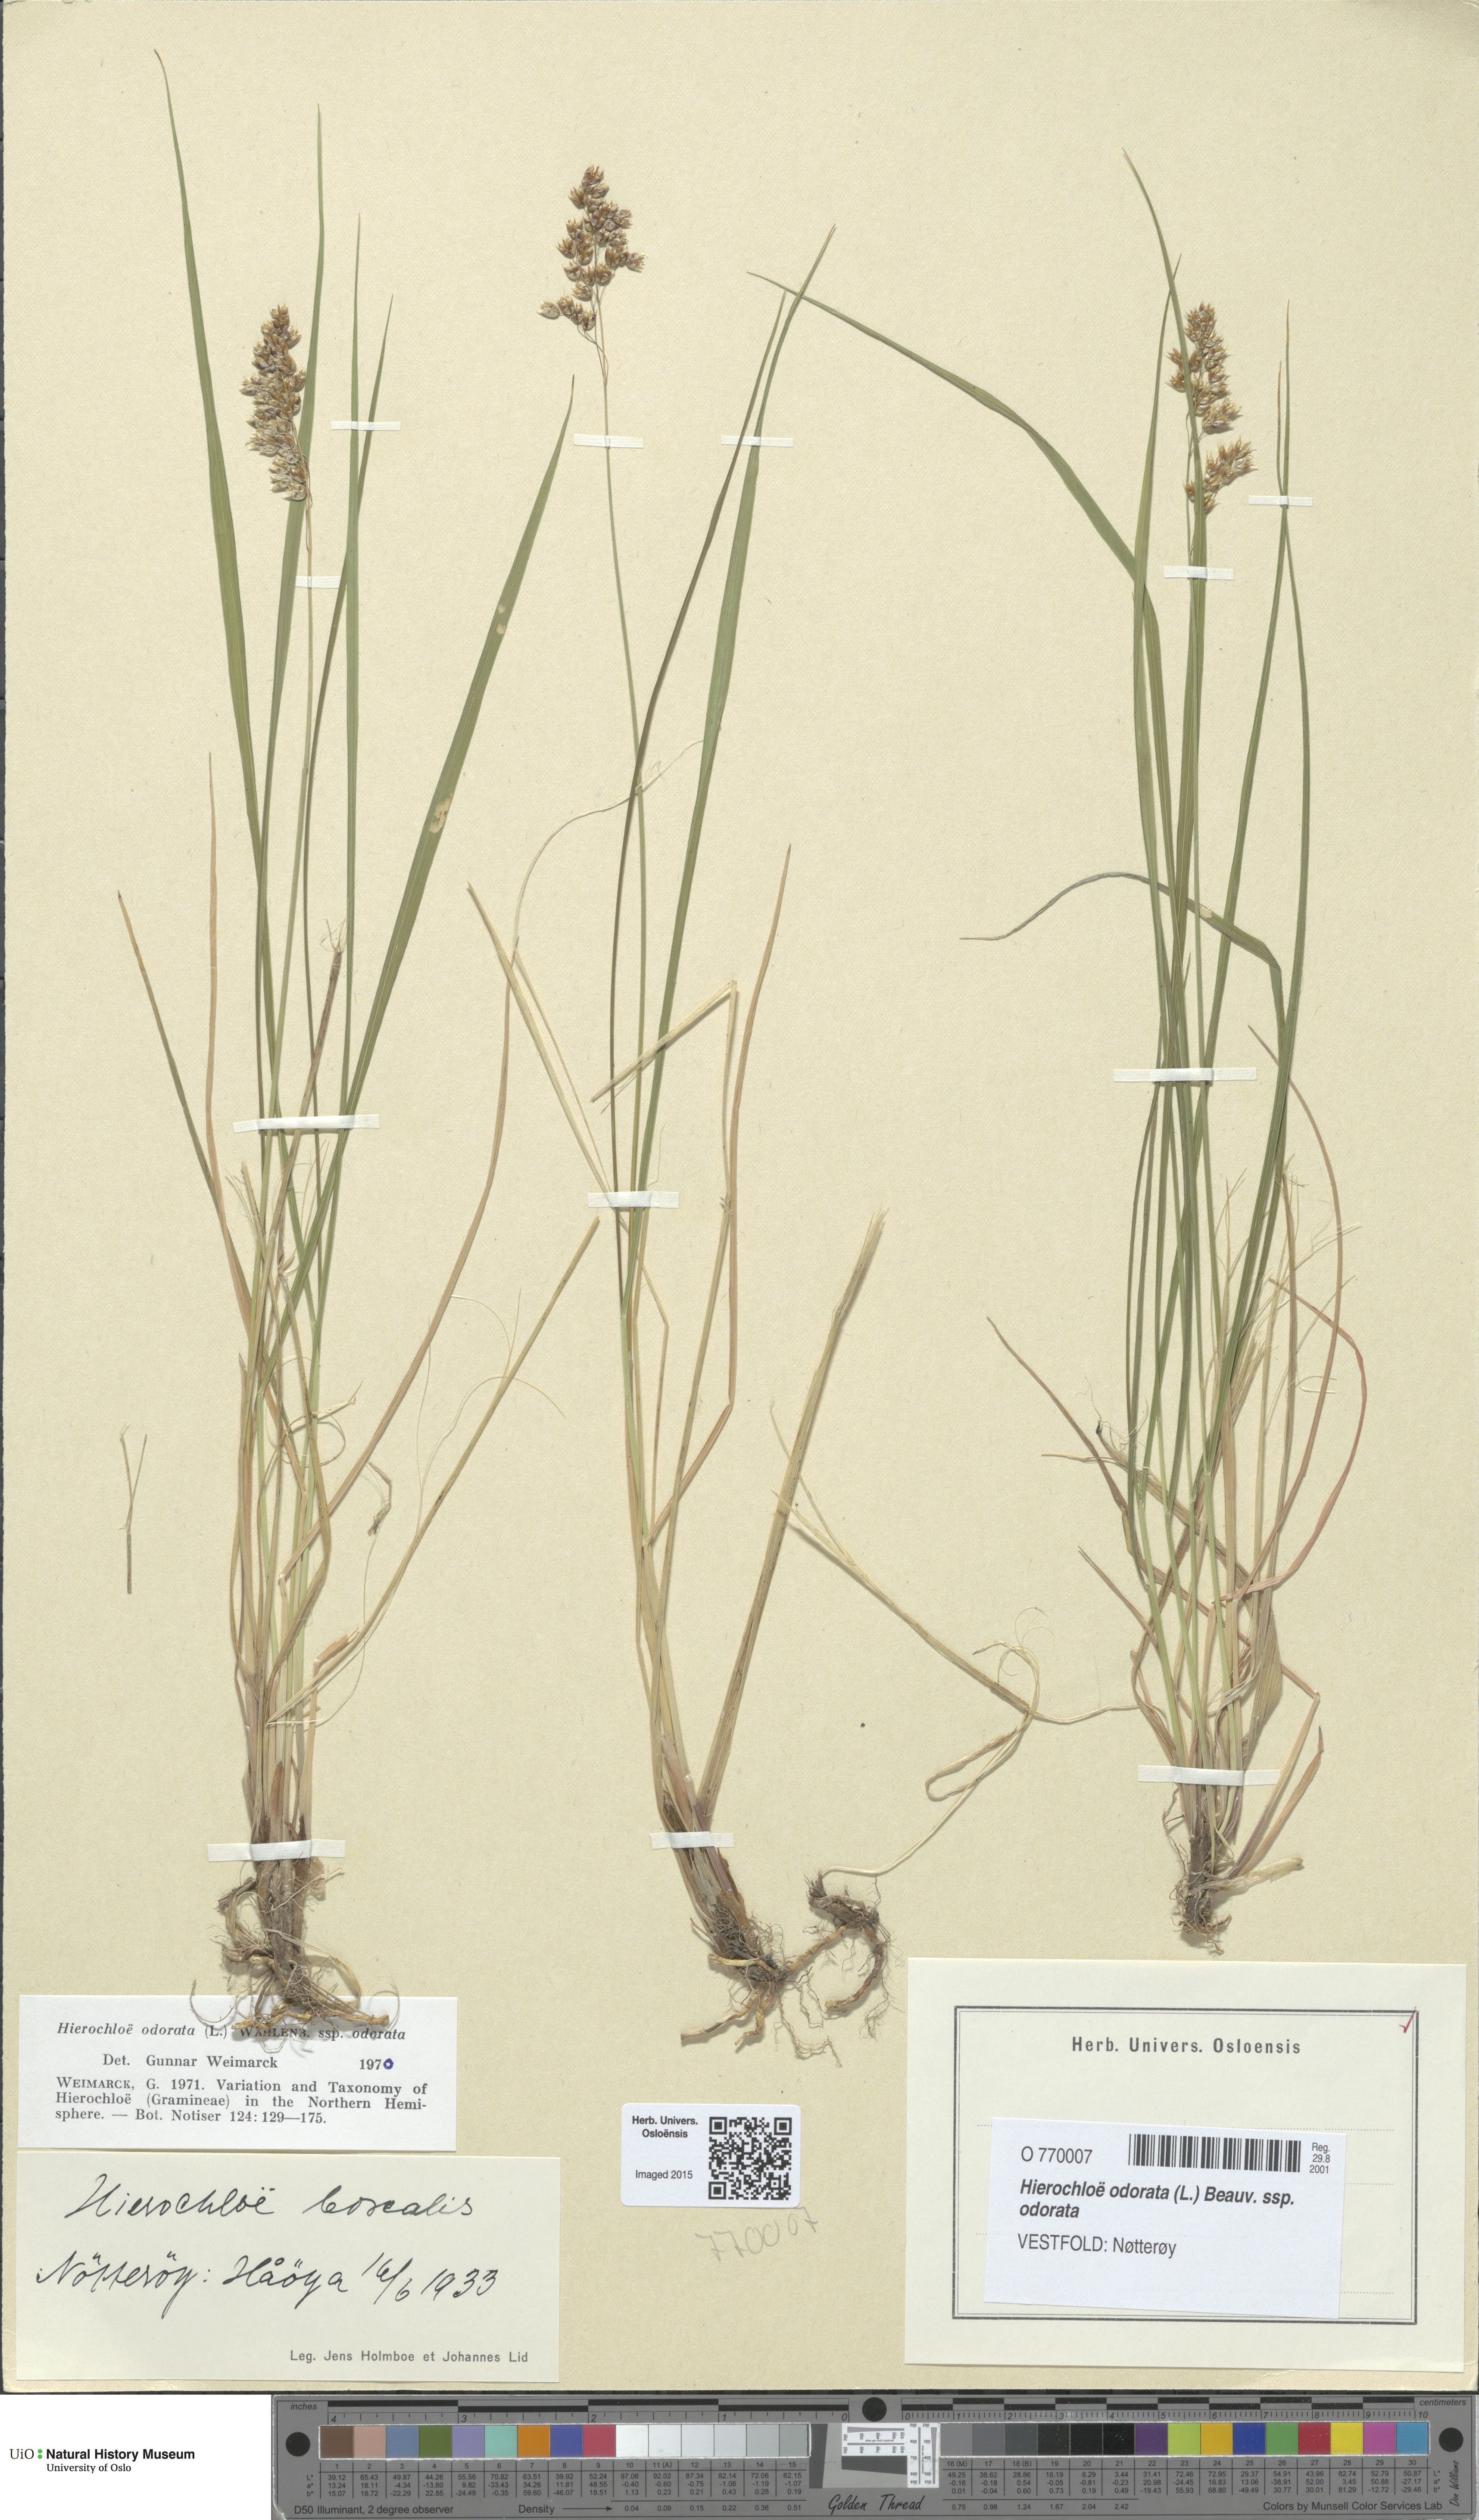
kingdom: Plantae
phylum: Tracheophyta
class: Liliopsida
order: Poales
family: Poaceae
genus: Anthoxanthum
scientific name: Anthoxanthum nitens
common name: Holy grass
